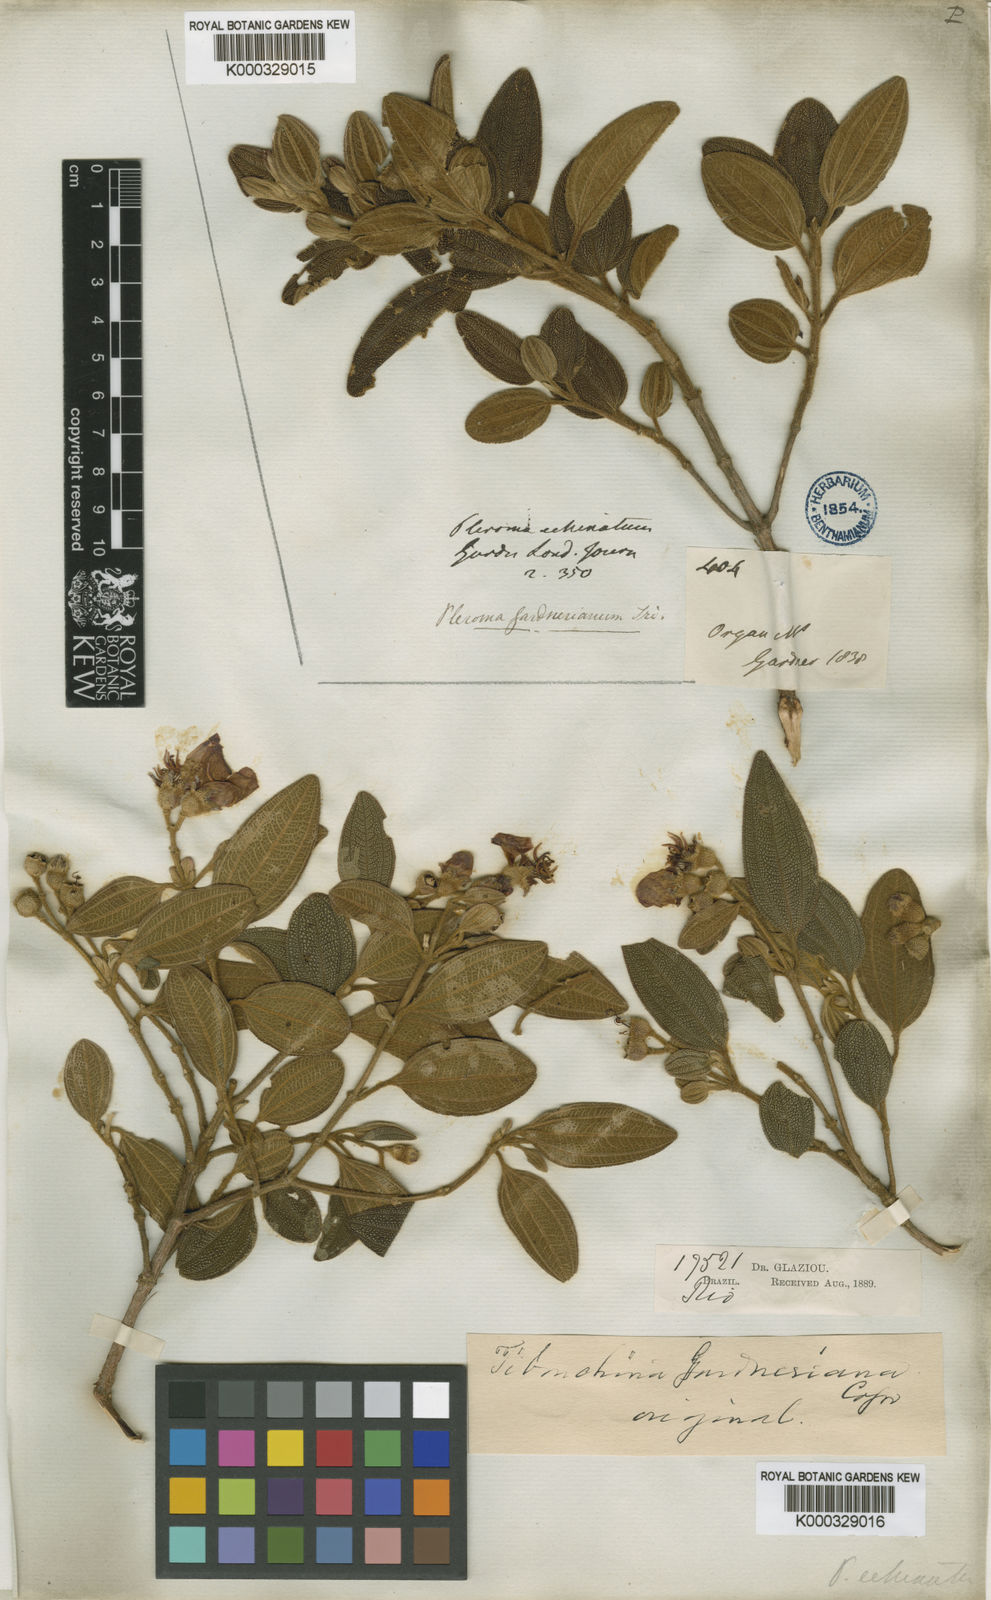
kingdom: Plantae
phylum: Tracheophyta
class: Magnoliopsida
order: Myrtales
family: Melastomataceae
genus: Pleroma
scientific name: Pleroma echinatum
